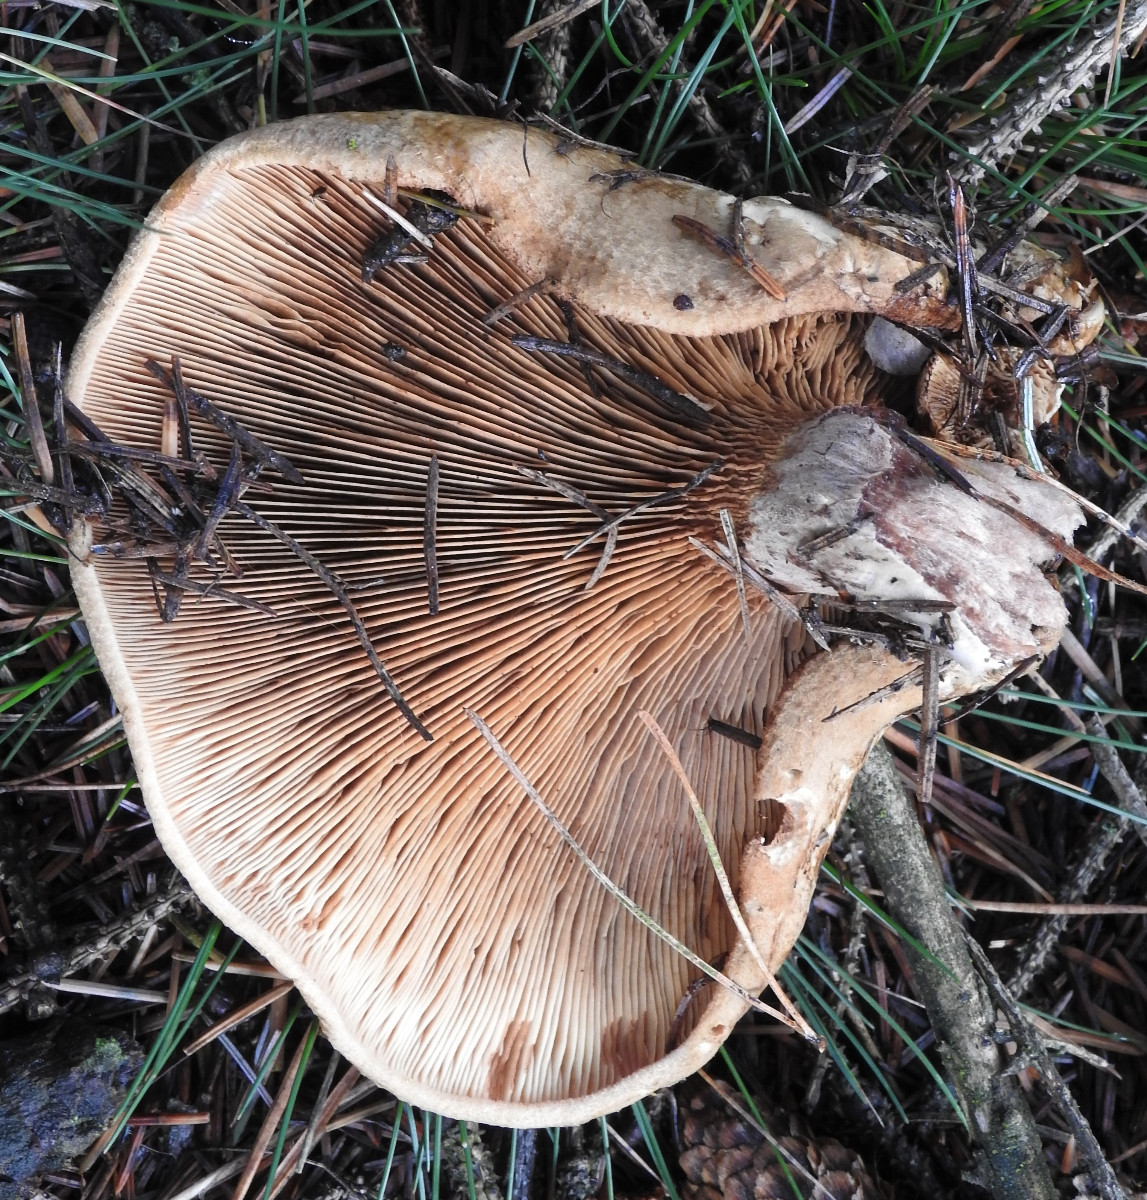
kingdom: Fungi
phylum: Basidiomycota
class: Agaricomycetes
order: Boletales
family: Tapinellaceae
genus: Tapinella
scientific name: Tapinella atrotomentosa
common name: sortfiltet viftesvamp
